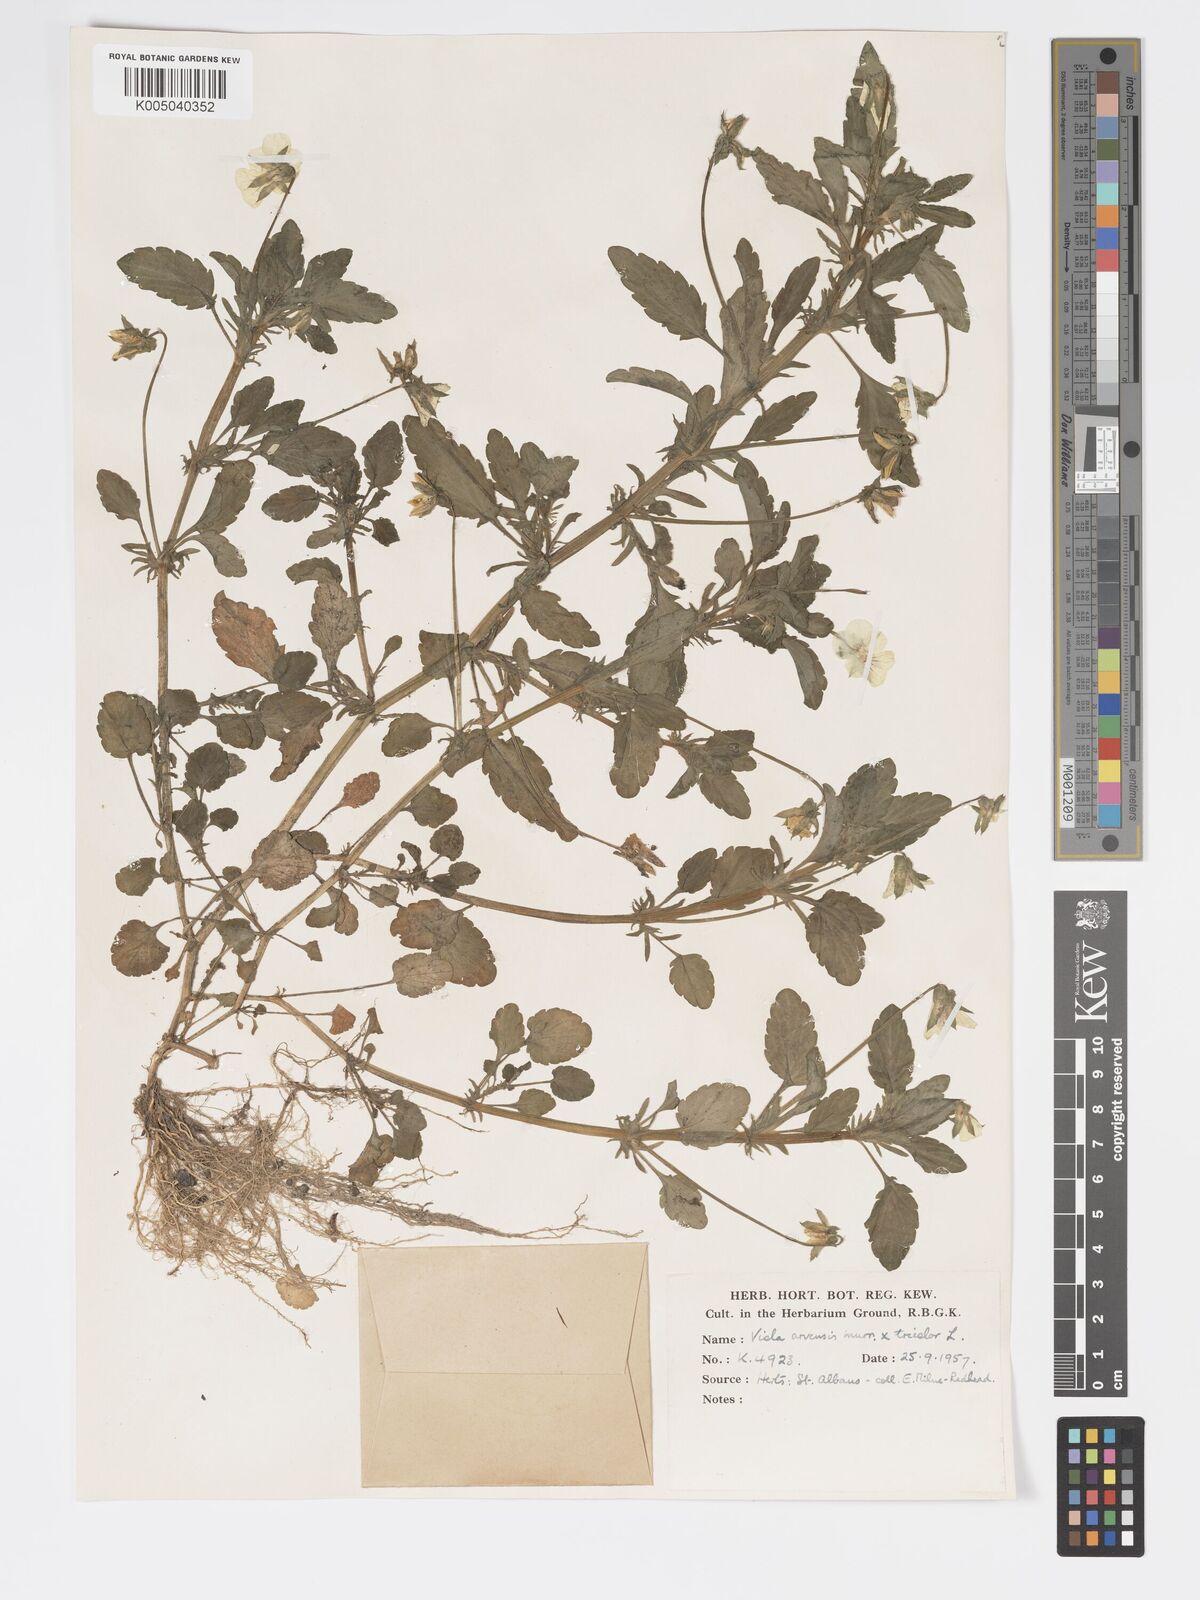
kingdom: Plantae
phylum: Tracheophyta
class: Magnoliopsida
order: Malpighiales
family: Violaceae
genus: Viola
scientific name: Viola arvensis
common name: Field pansy
